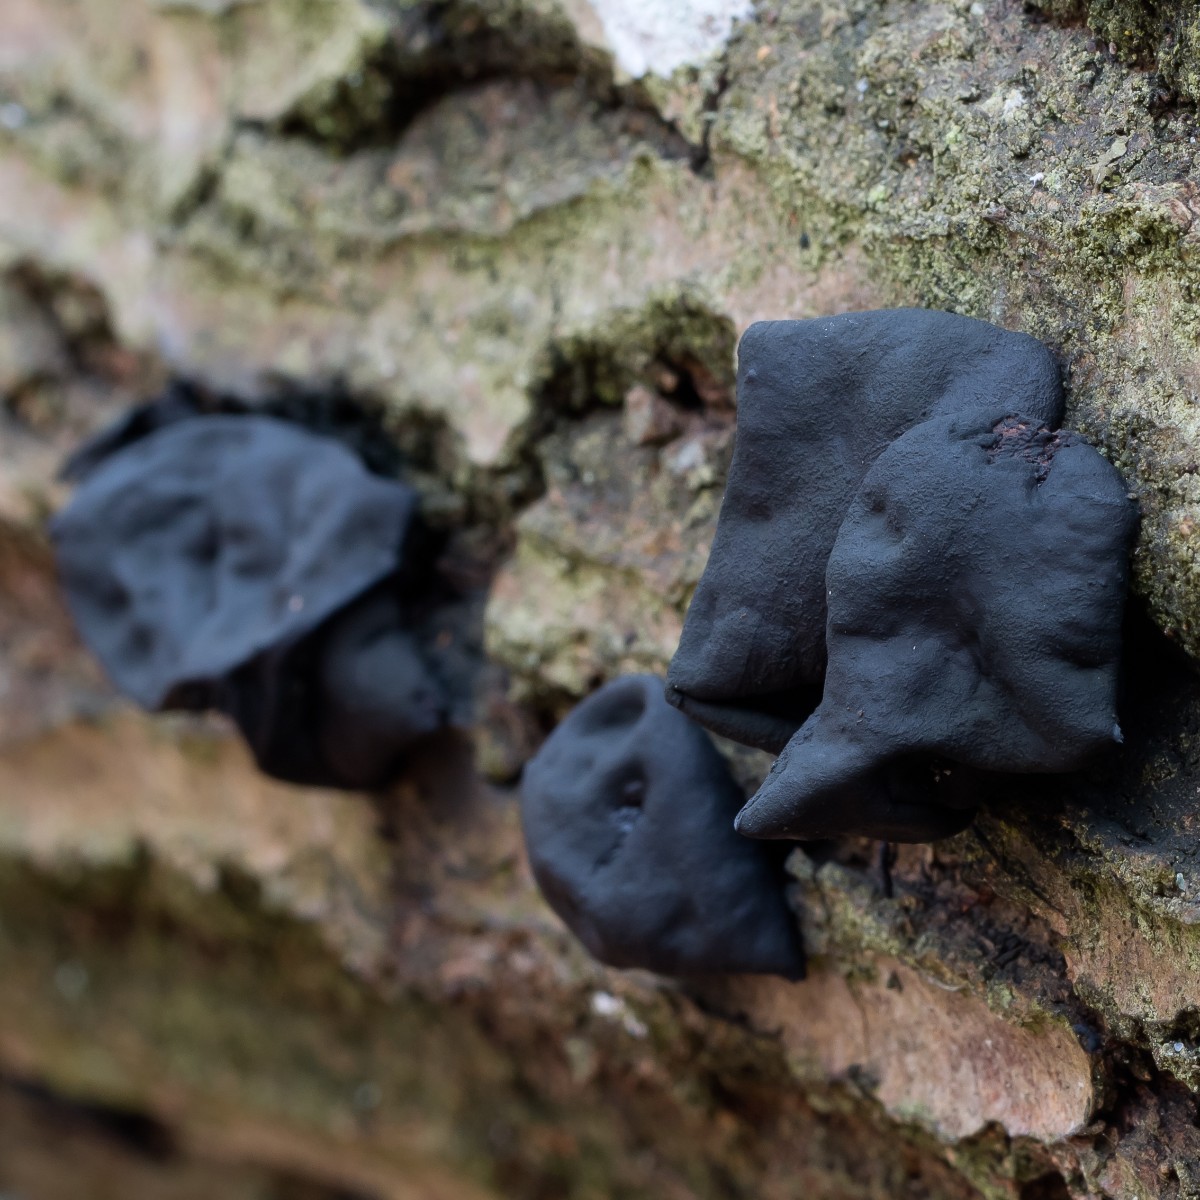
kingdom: Fungi
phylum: Basidiomycota
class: Agaricomycetes
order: Auriculariales
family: Auriculariaceae
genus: Exidia
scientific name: Exidia glandulosa
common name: ege-bævretop
